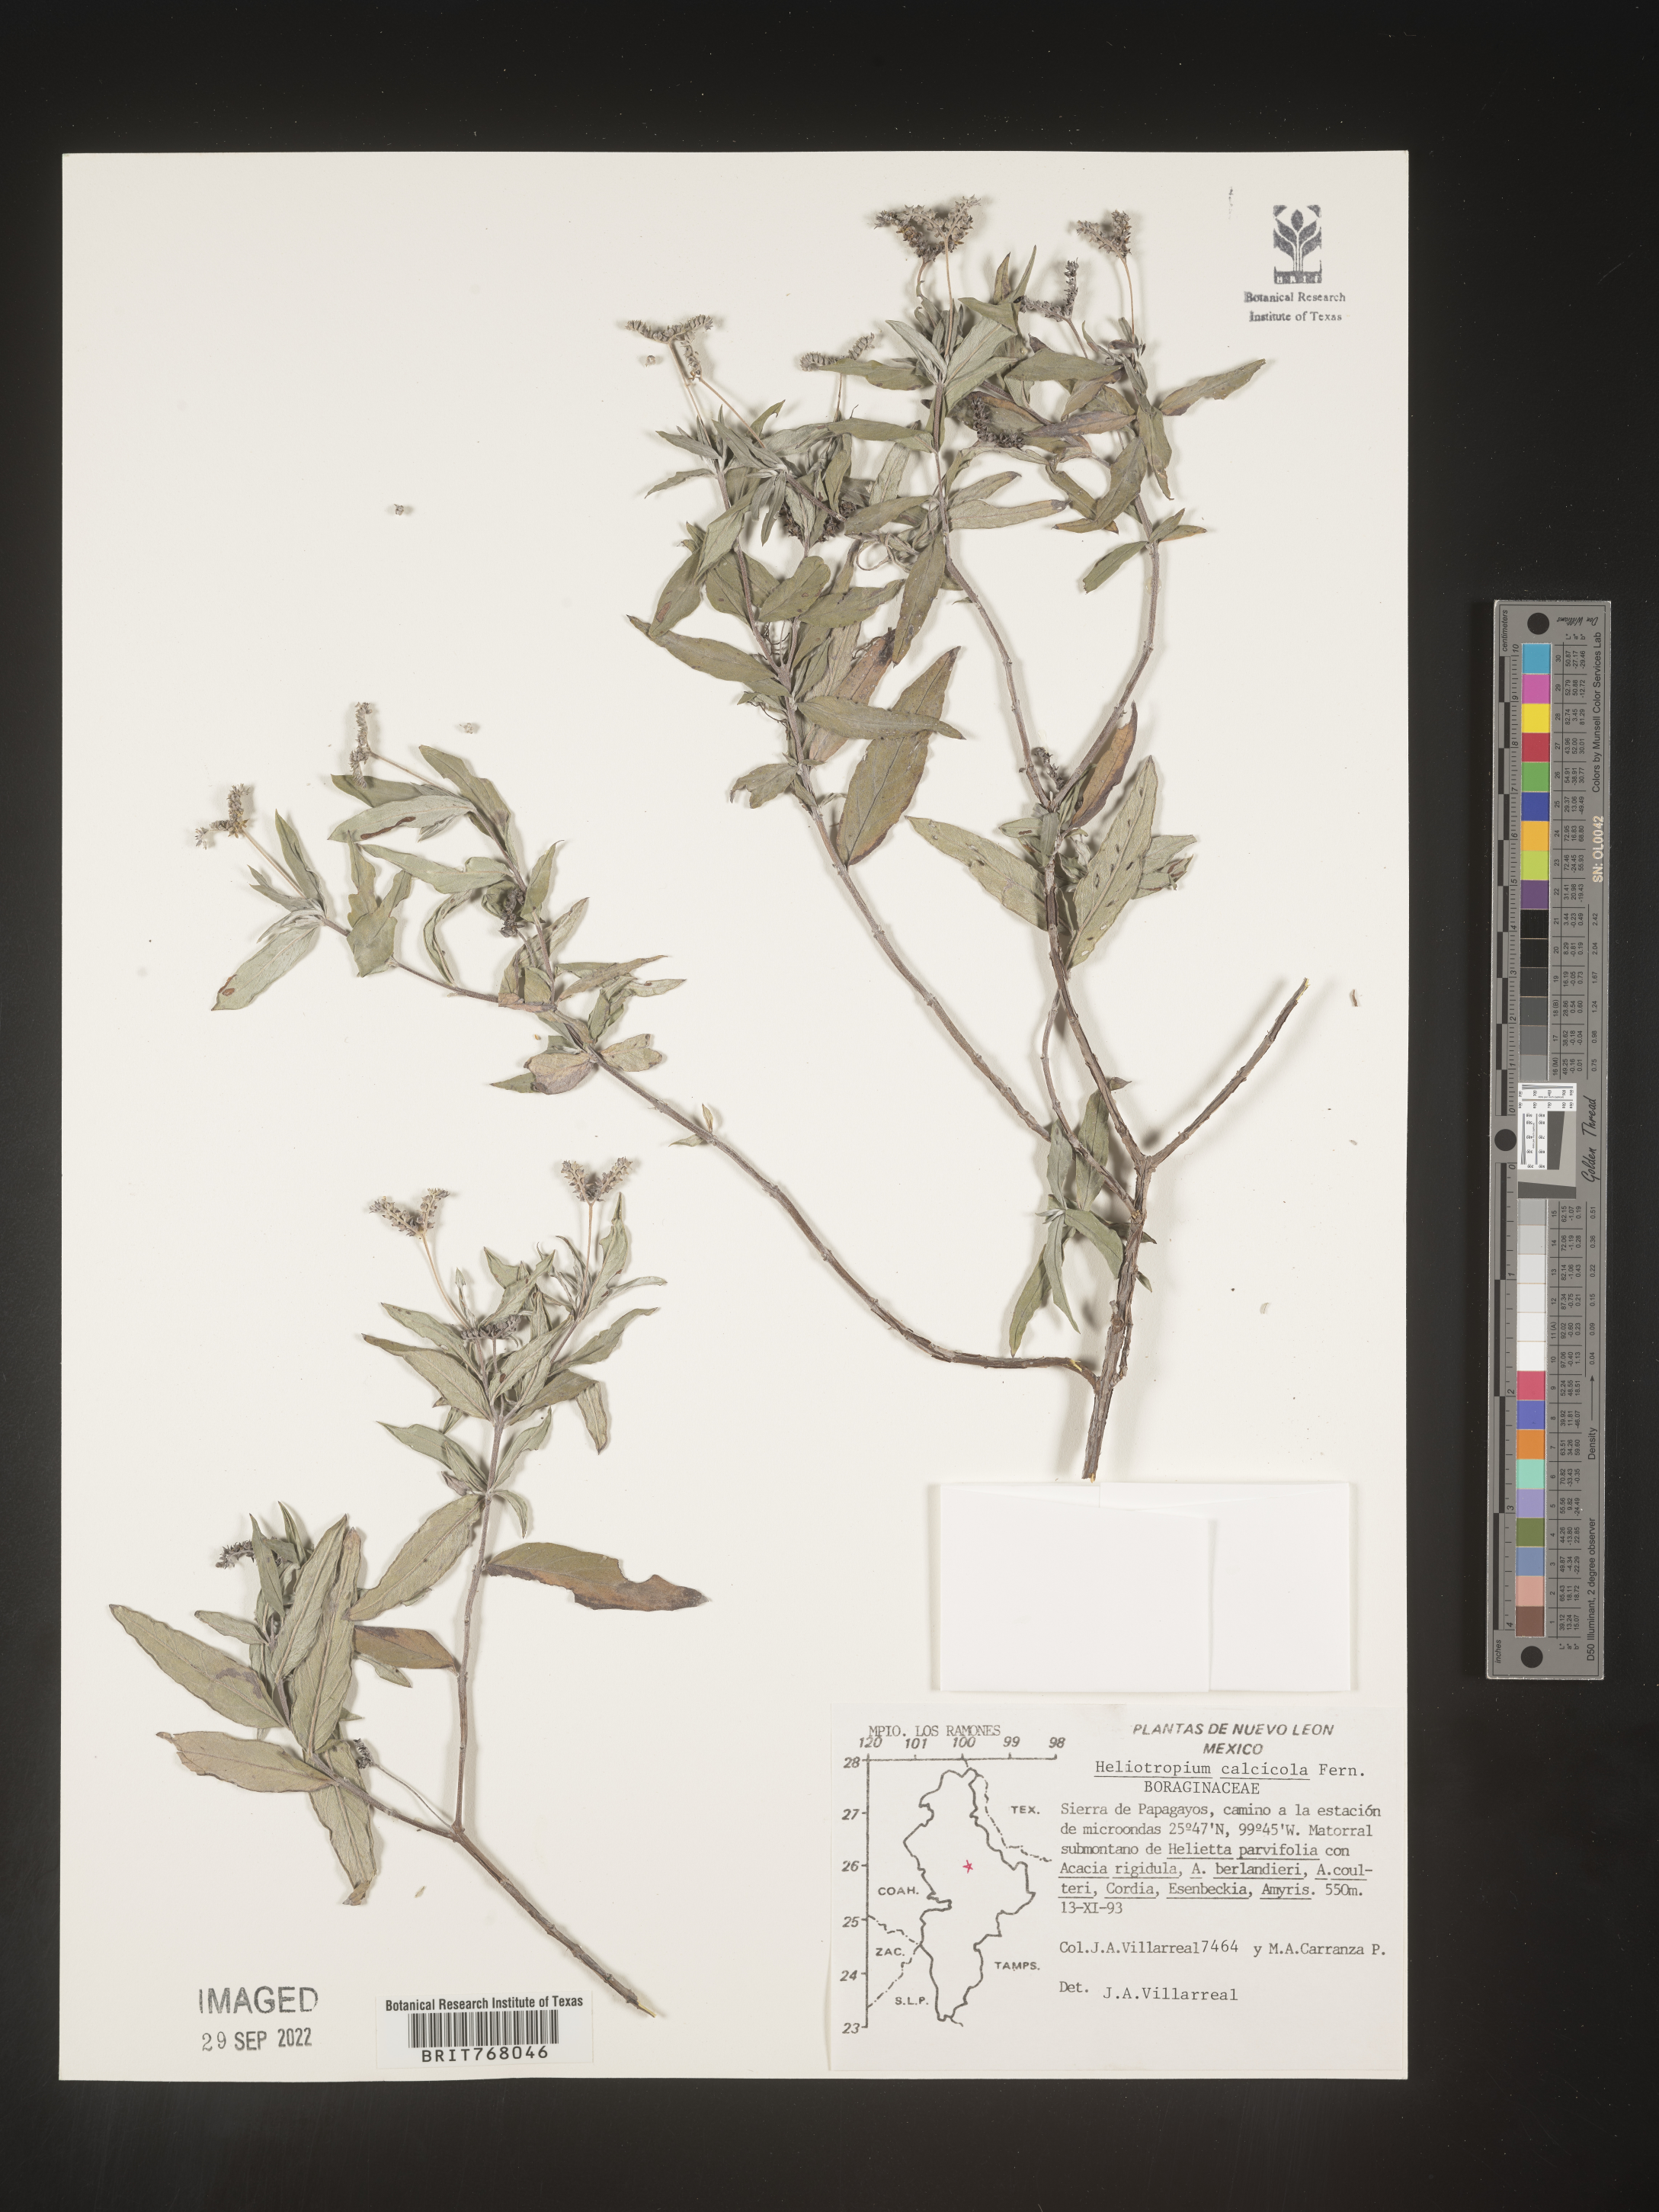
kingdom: Plantae
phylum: Tracheophyta
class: Magnoliopsida
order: Boraginales
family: Heliotropiaceae
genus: Heliotropium
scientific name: Heliotropium
